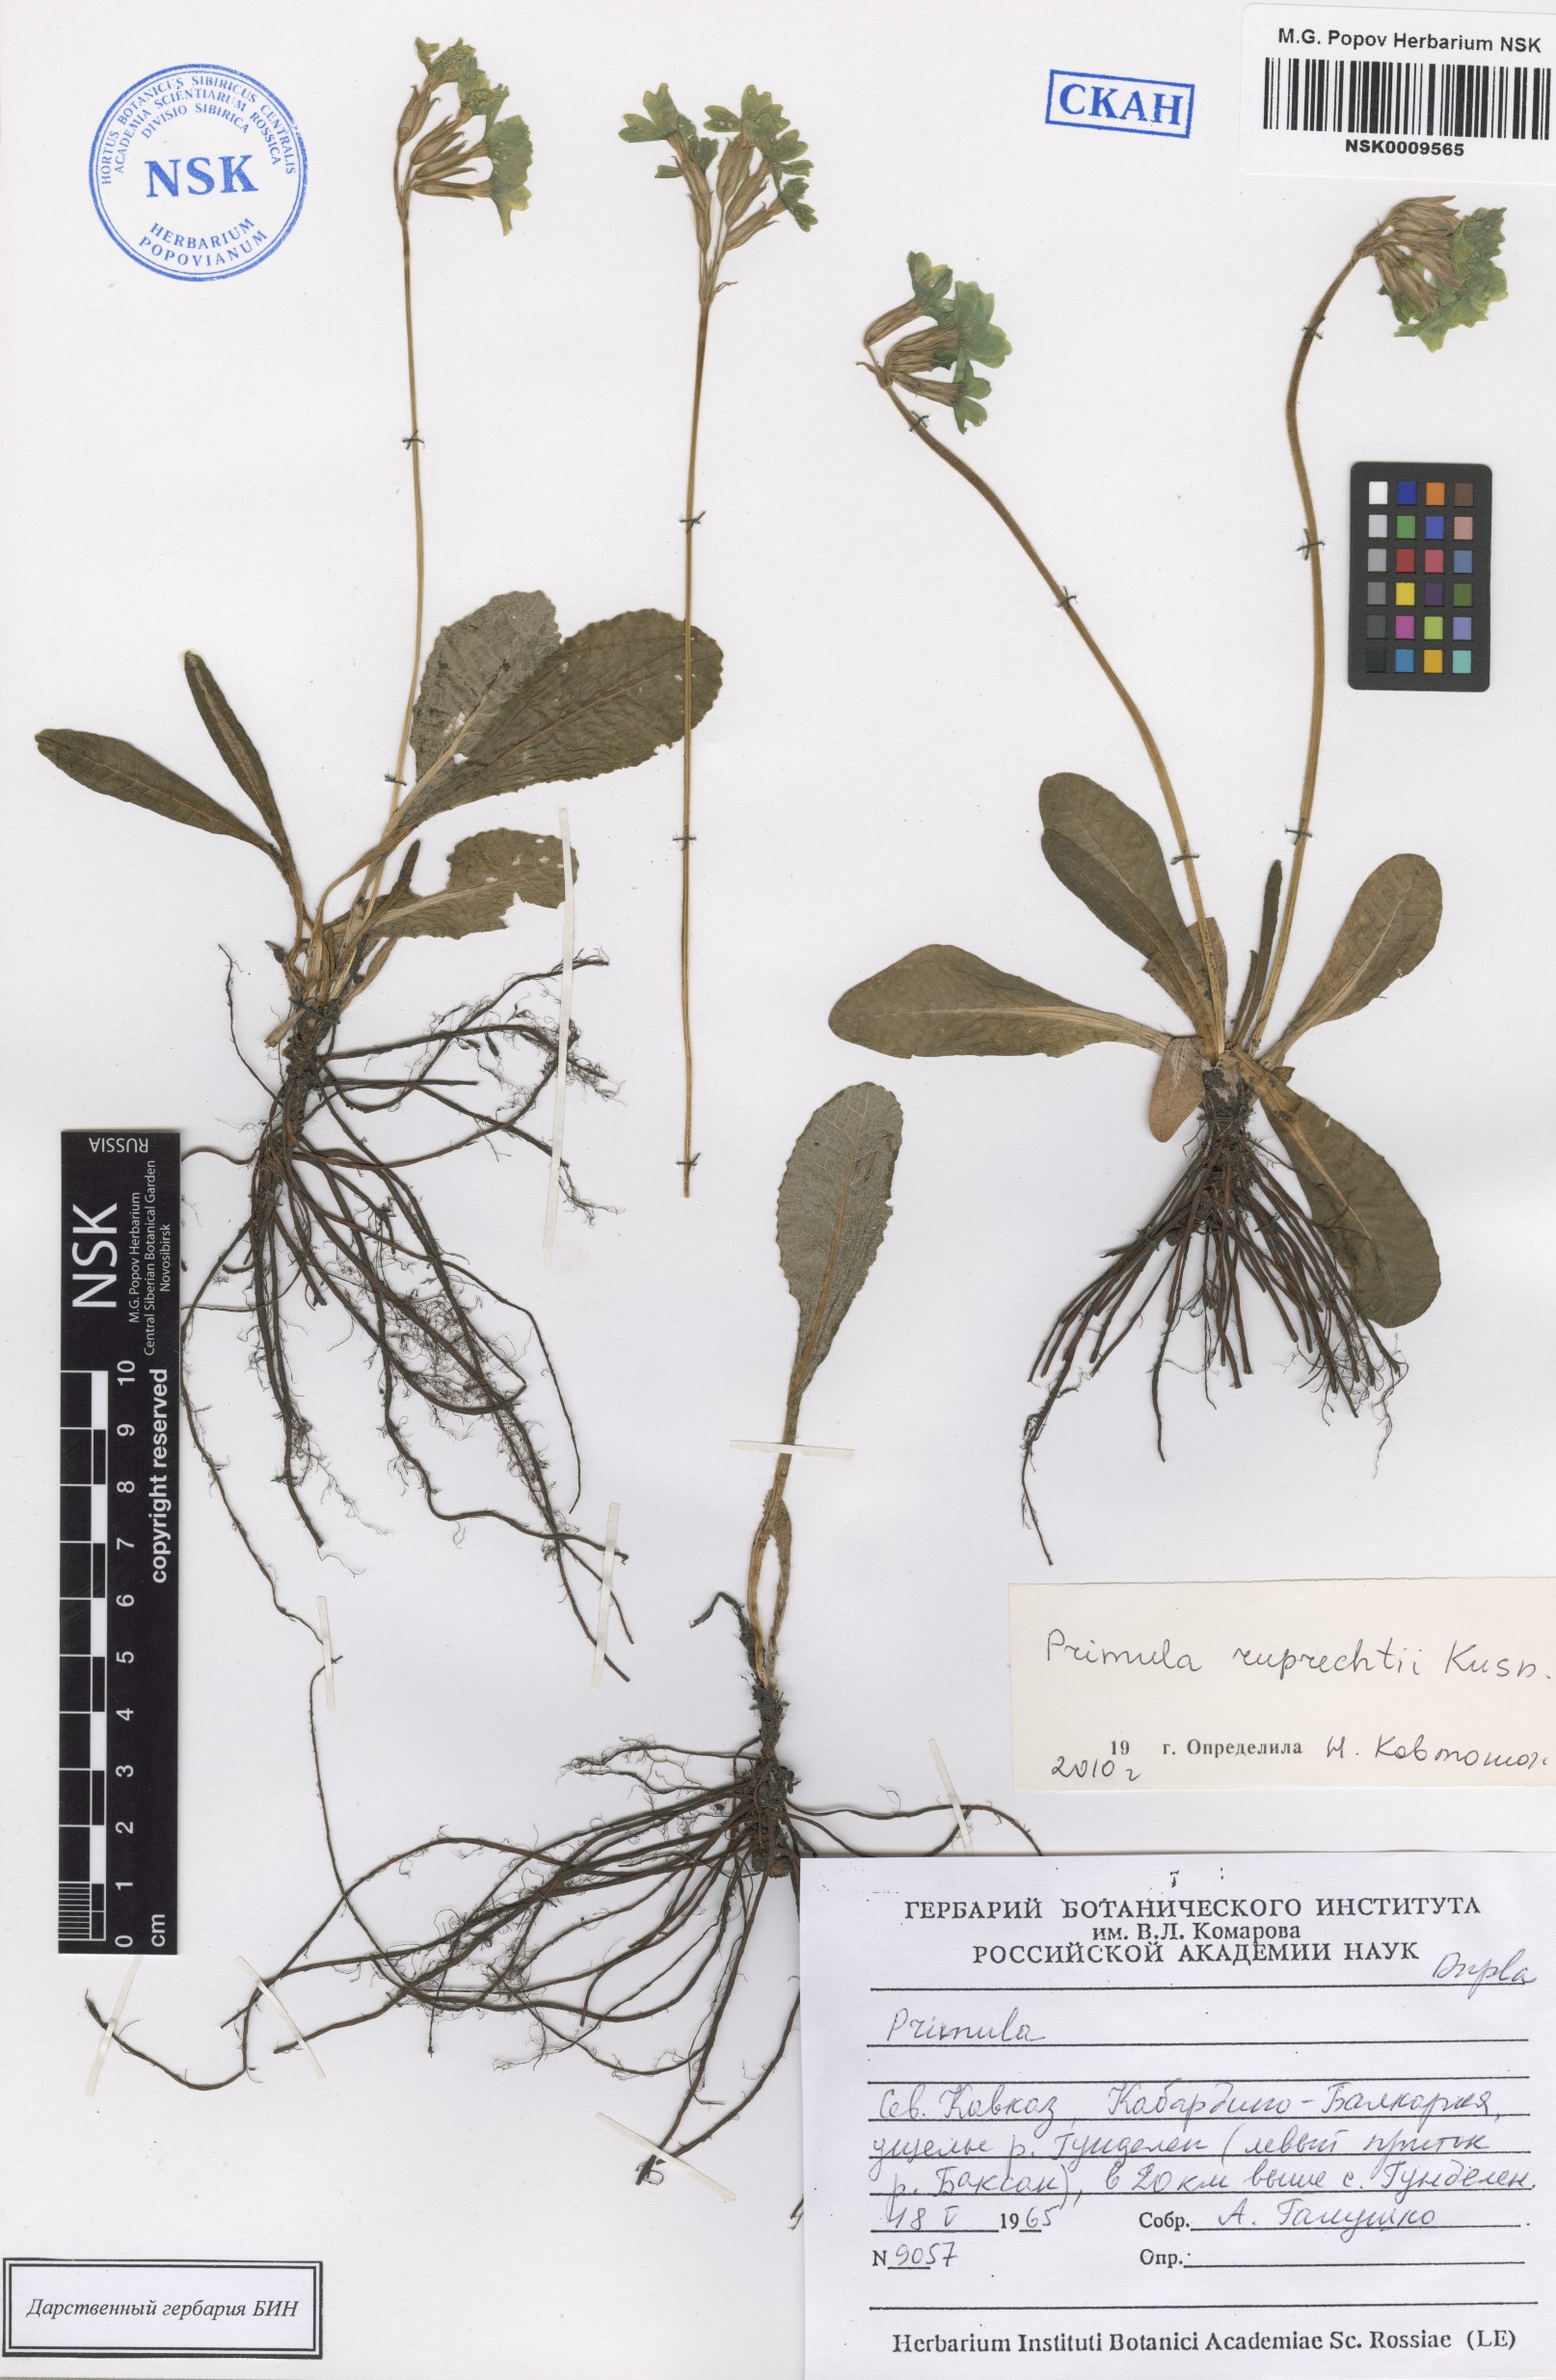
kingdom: Plantae
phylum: Tracheophyta
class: Magnoliopsida
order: Ericales
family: Primulaceae
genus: Primula
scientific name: Primula ruprechtii
